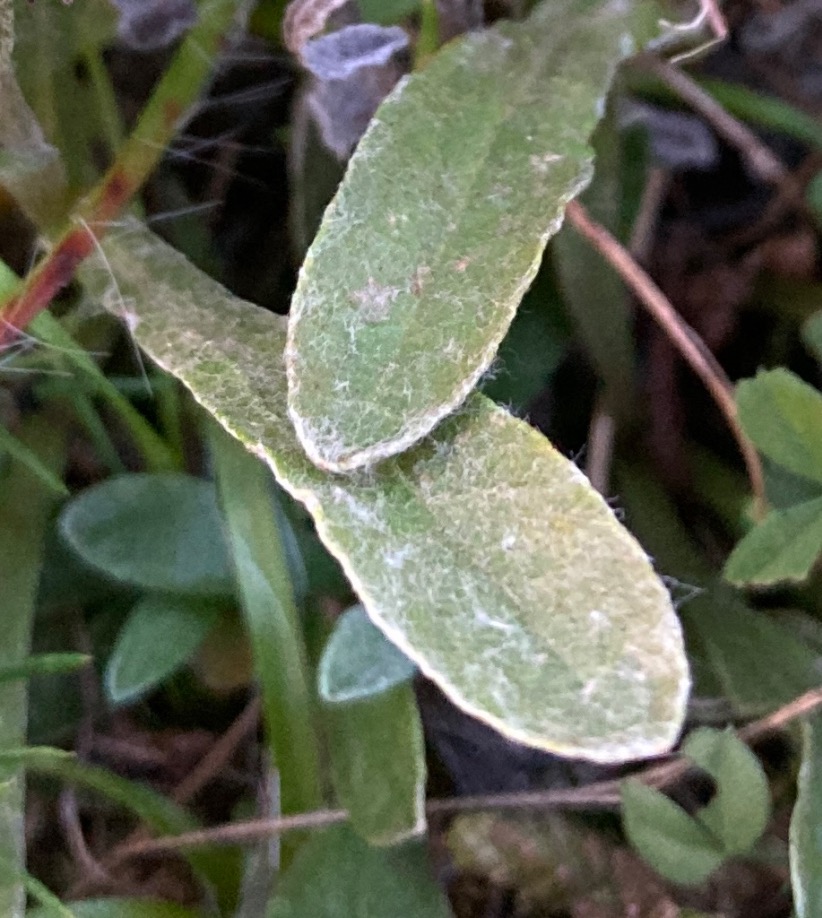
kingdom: Plantae
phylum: Tracheophyta
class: Magnoliopsida
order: Asterales
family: Asteraceae
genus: Helichrysum
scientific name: Helichrysum arenarium
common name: Gul evighedsblomst
